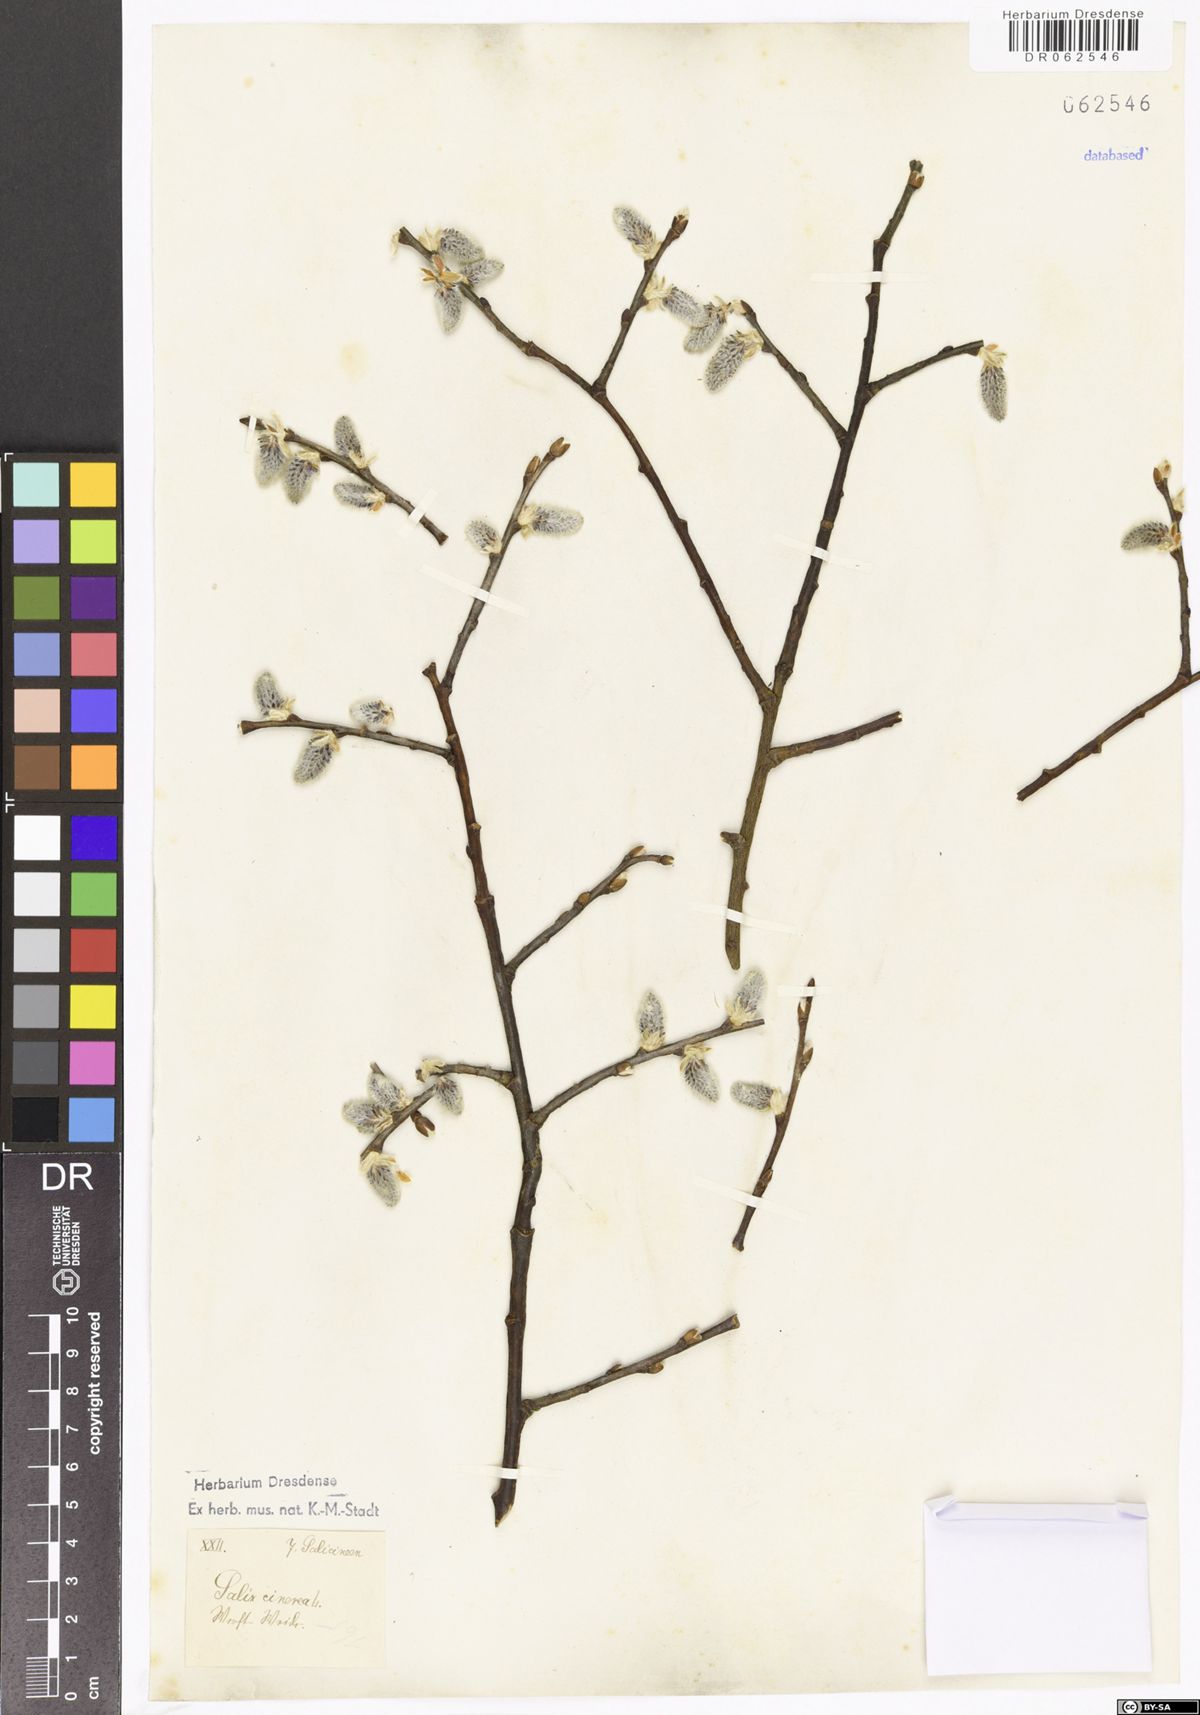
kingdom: Plantae
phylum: Tracheophyta
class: Magnoliopsida
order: Malpighiales
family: Salicaceae
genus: Salix
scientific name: Salix cinerea
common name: Common sallow
